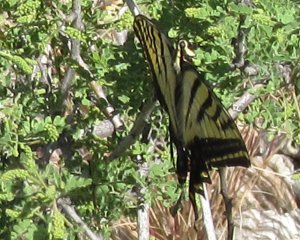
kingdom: Animalia
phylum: Arthropoda
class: Insecta
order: Lepidoptera
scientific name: Lepidoptera
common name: Butterflies
